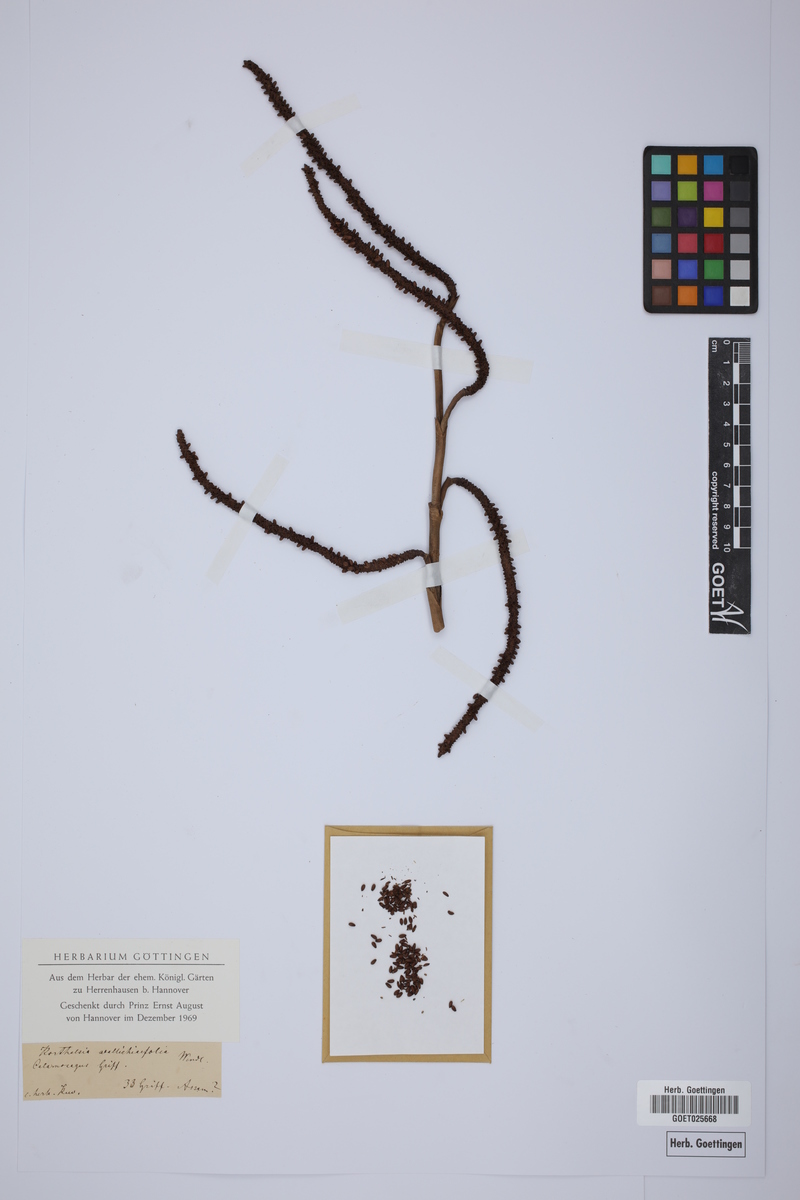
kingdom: Plantae
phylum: Tracheophyta
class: Liliopsida
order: Arecales
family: Arecaceae
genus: Korthalsia
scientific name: Korthalsia laciniosa
